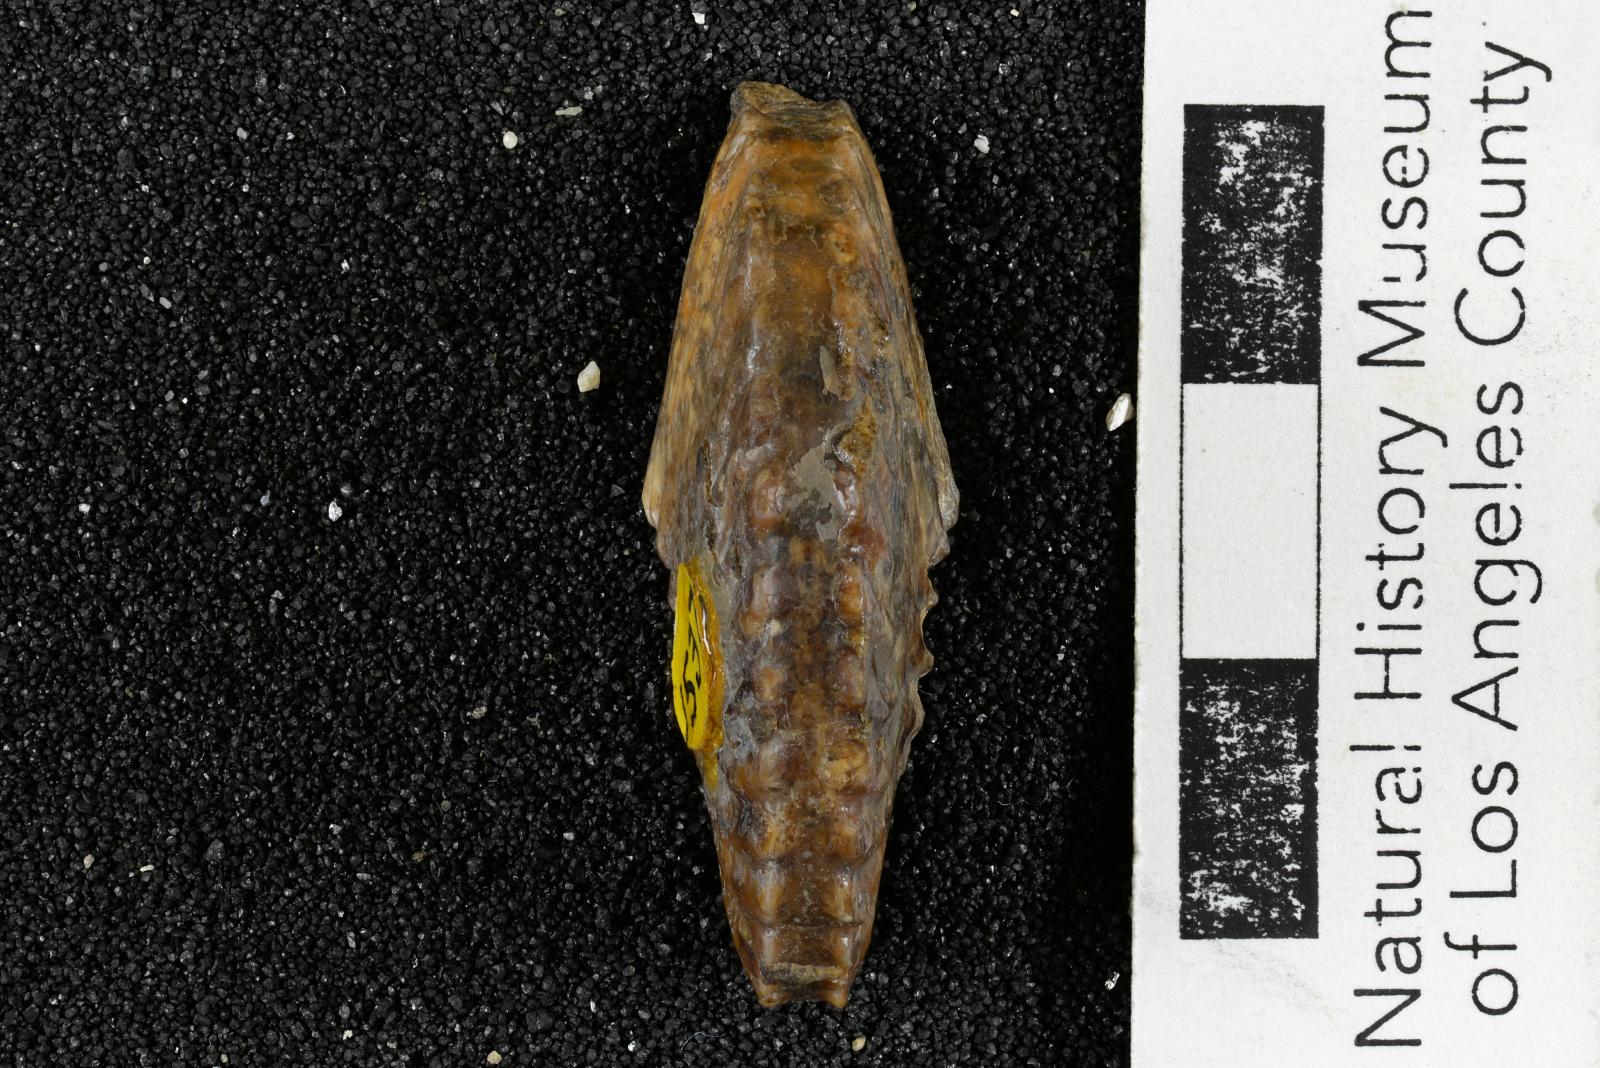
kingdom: Animalia
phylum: Mollusca
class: Cephalopoda
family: Placenticeratidae
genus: Metaplacenticeras
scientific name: Metaplacenticeras
